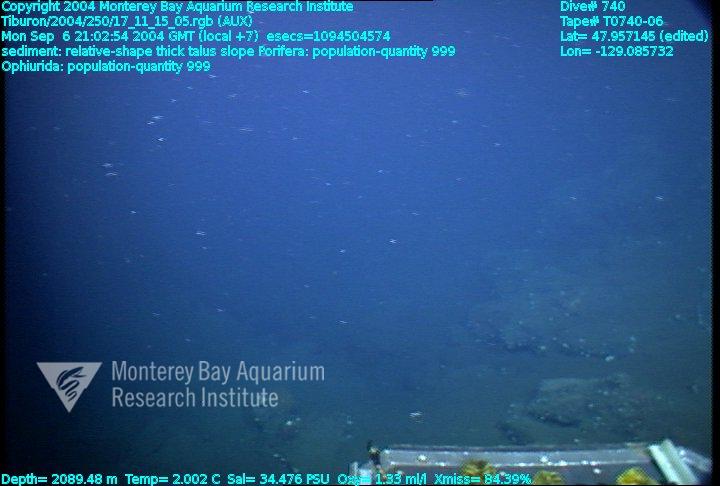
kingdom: Animalia
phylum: Porifera
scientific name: Porifera
